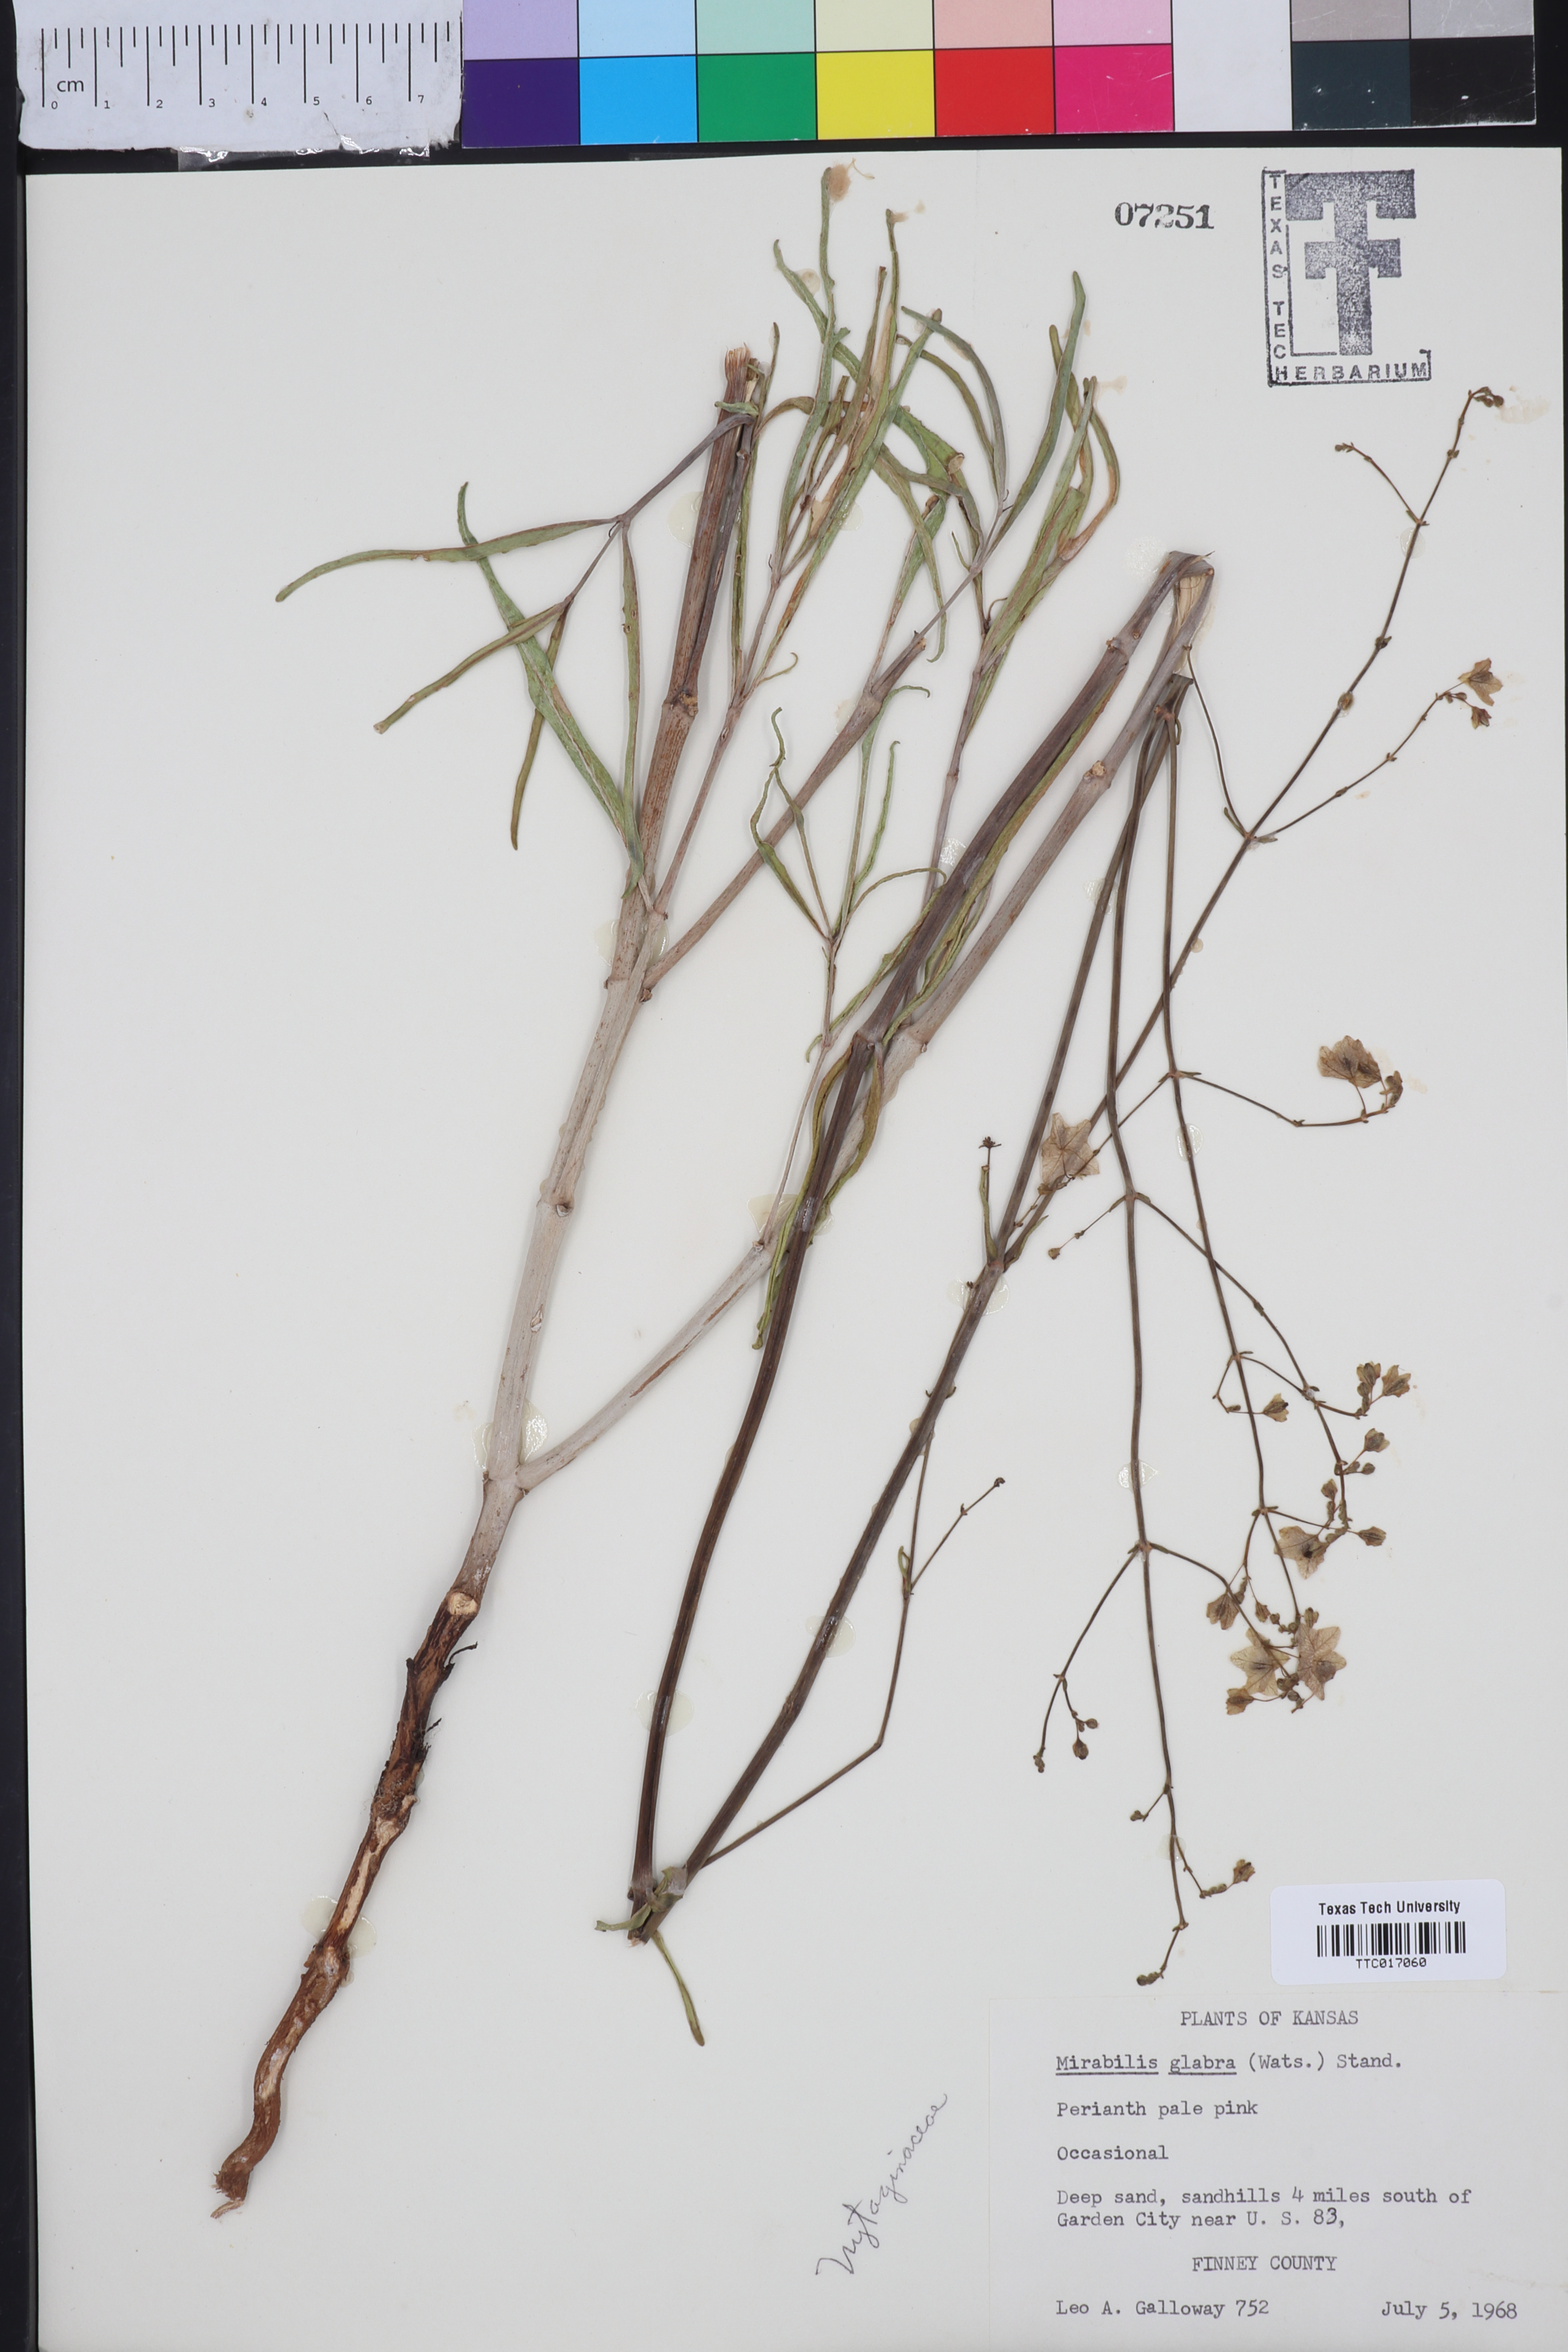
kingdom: Plantae
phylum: Tracheophyta
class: Magnoliopsida
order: Caryophyllales
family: Nyctaginaceae
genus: Mirabilis
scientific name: Mirabilis glabra
